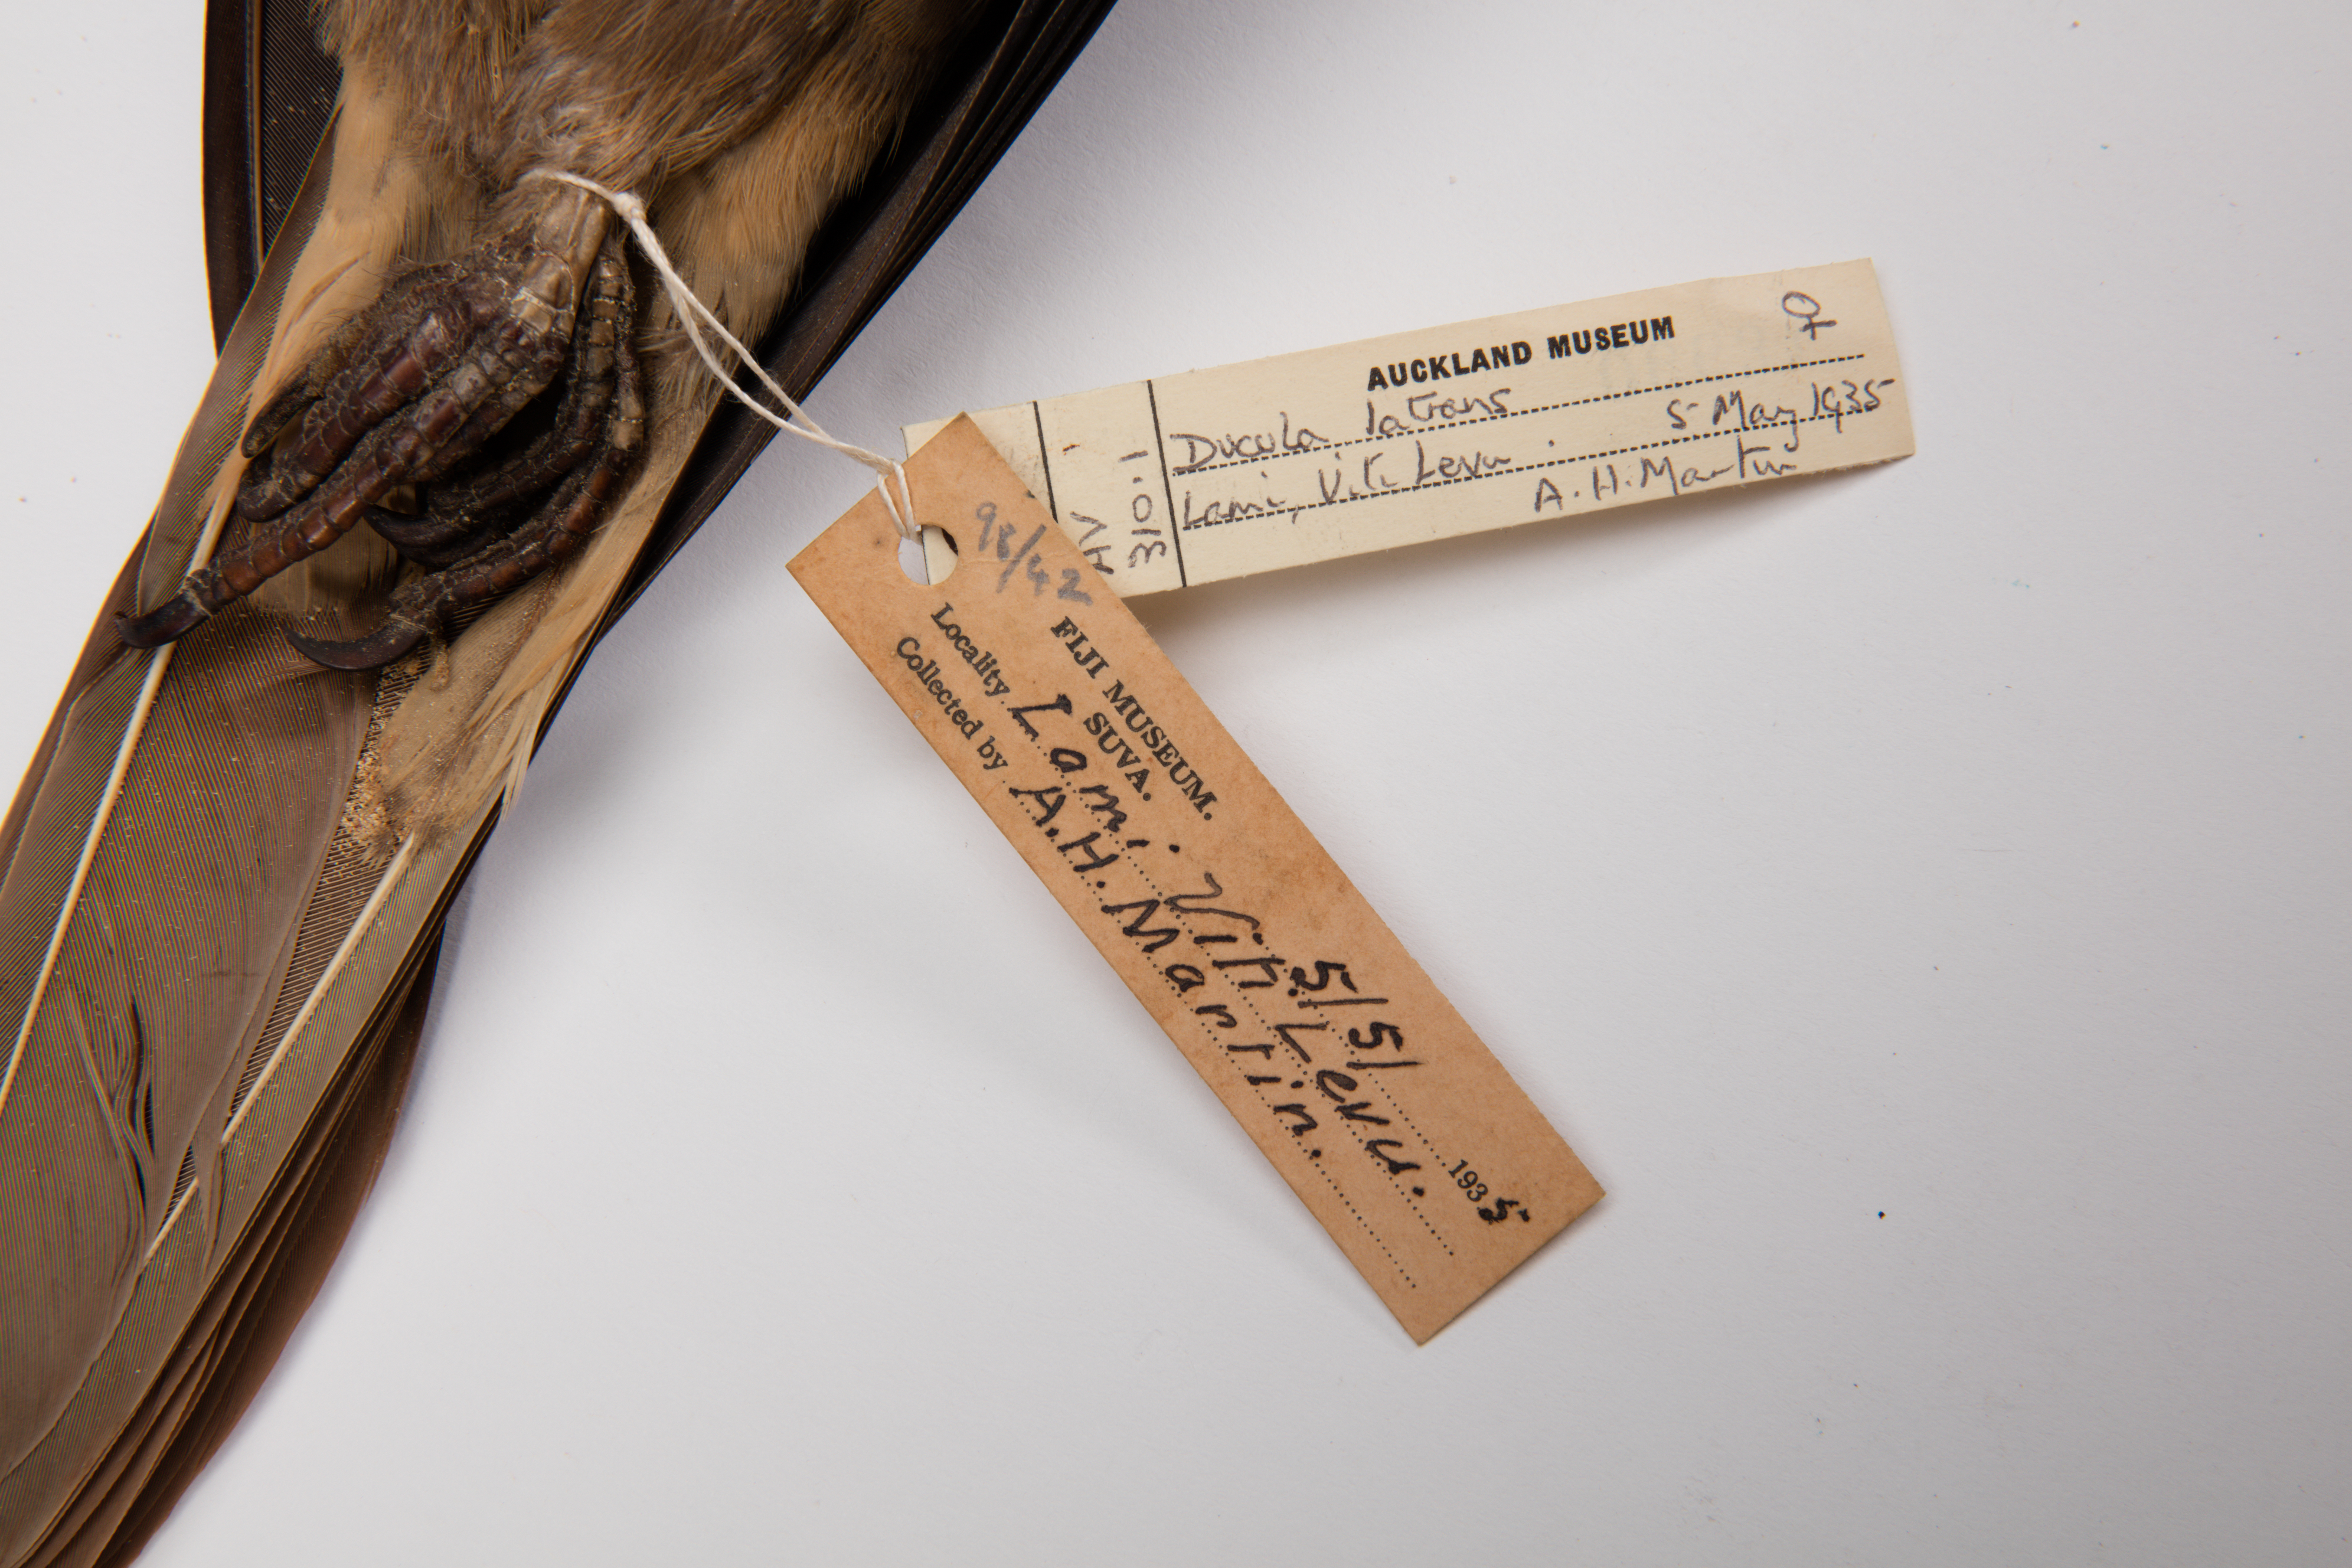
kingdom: Animalia
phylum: Chordata
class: Aves
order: Columbiformes
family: Columbidae
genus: Ducula
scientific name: Ducula latrans
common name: Barking imperial pigeon
